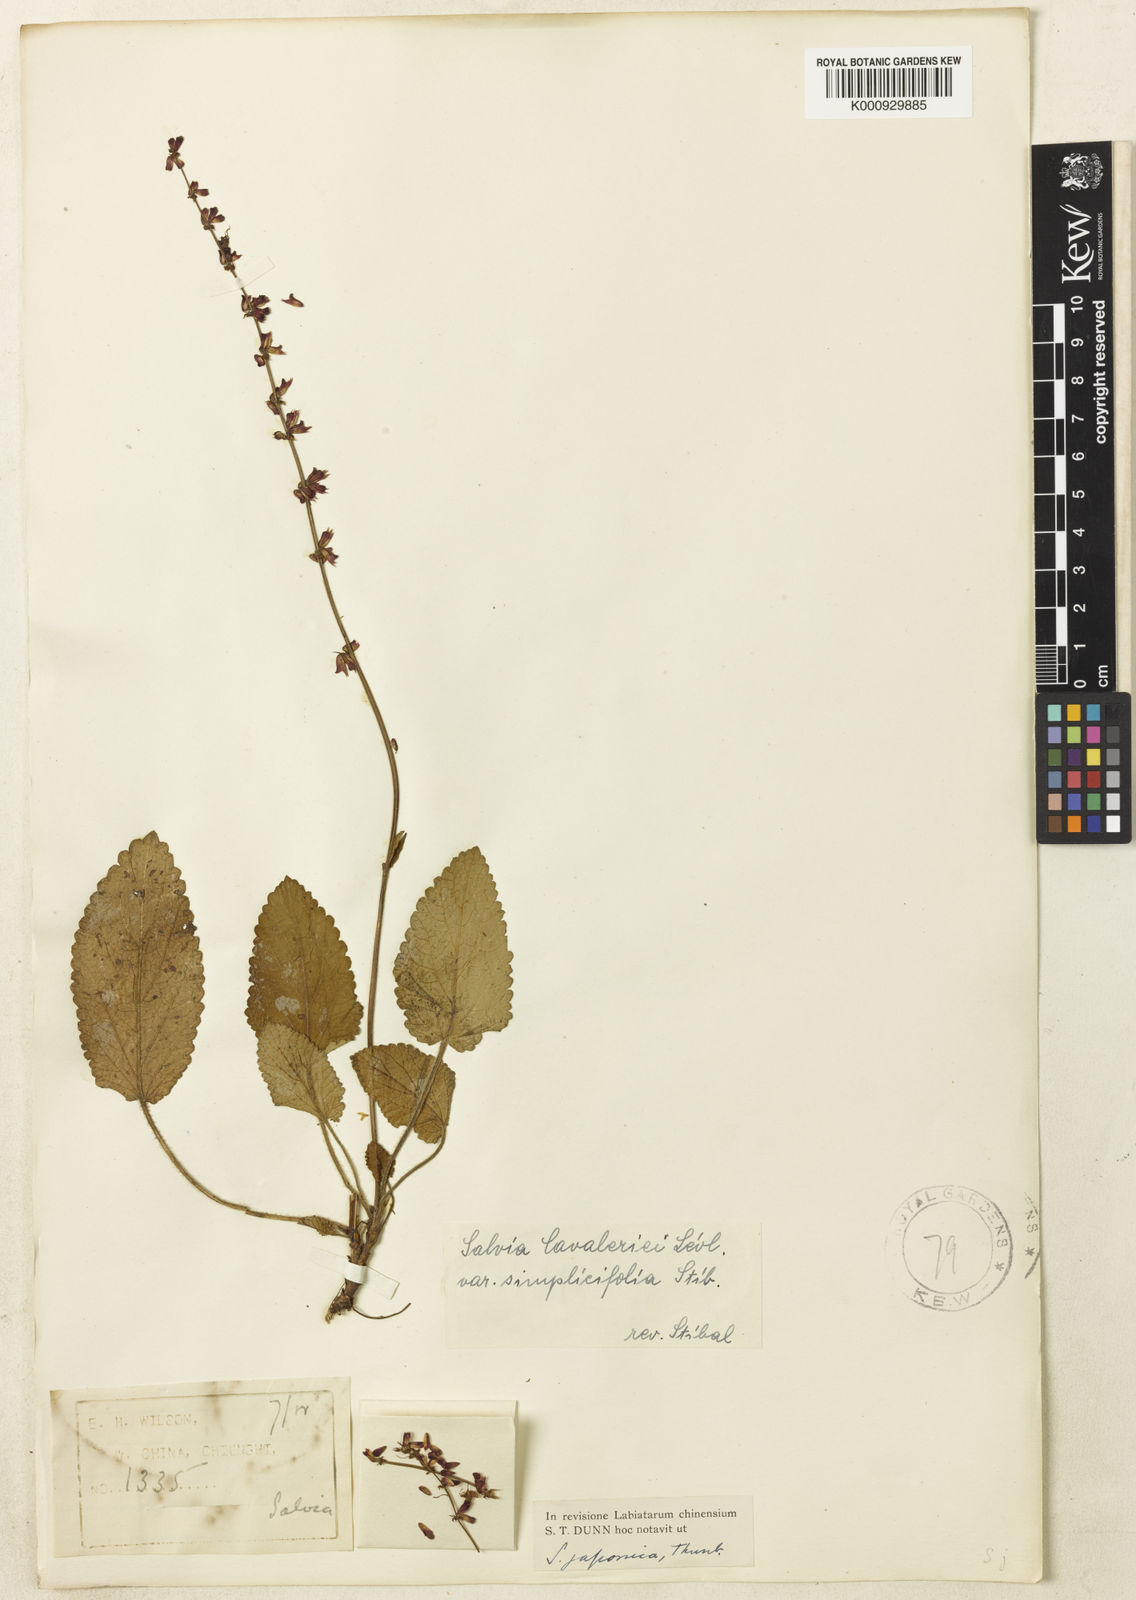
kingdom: Plantae
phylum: Tracheophyta
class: Magnoliopsida
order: Lamiales
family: Lamiaceae
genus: Salvia
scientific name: Salvia
